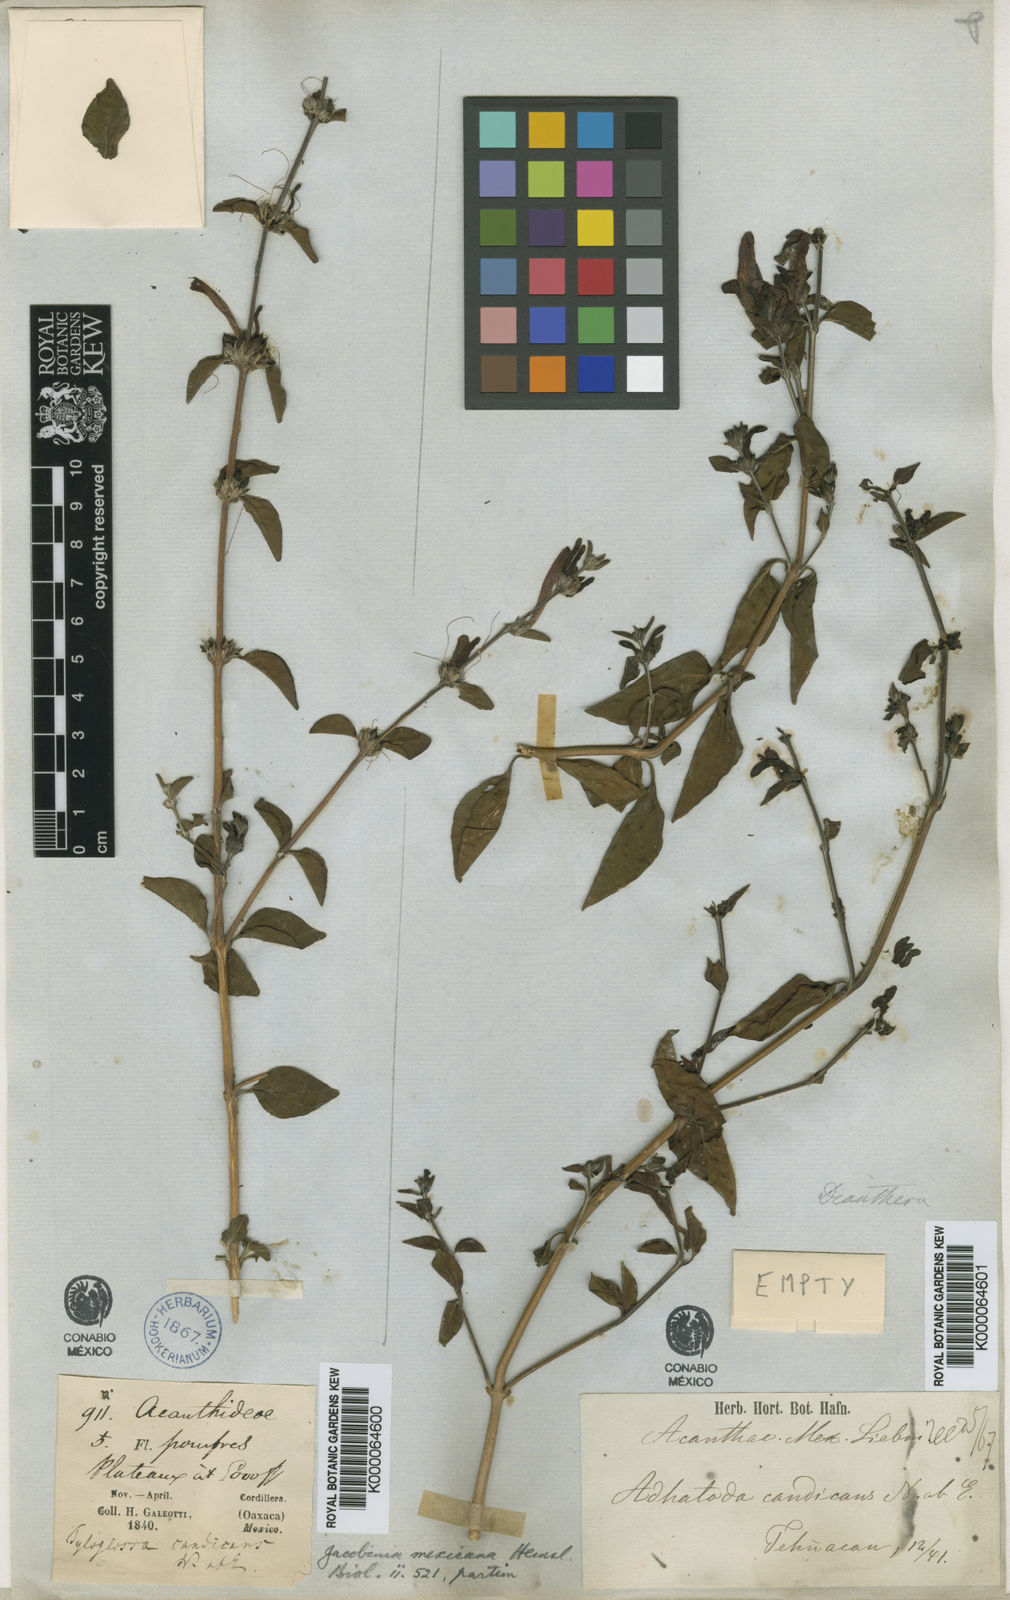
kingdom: Plantae
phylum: Tracheophyta
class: Magnoliopsida
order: Lamiales
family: Acanthaceae
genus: Dianthera
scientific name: Dianthera candicans
